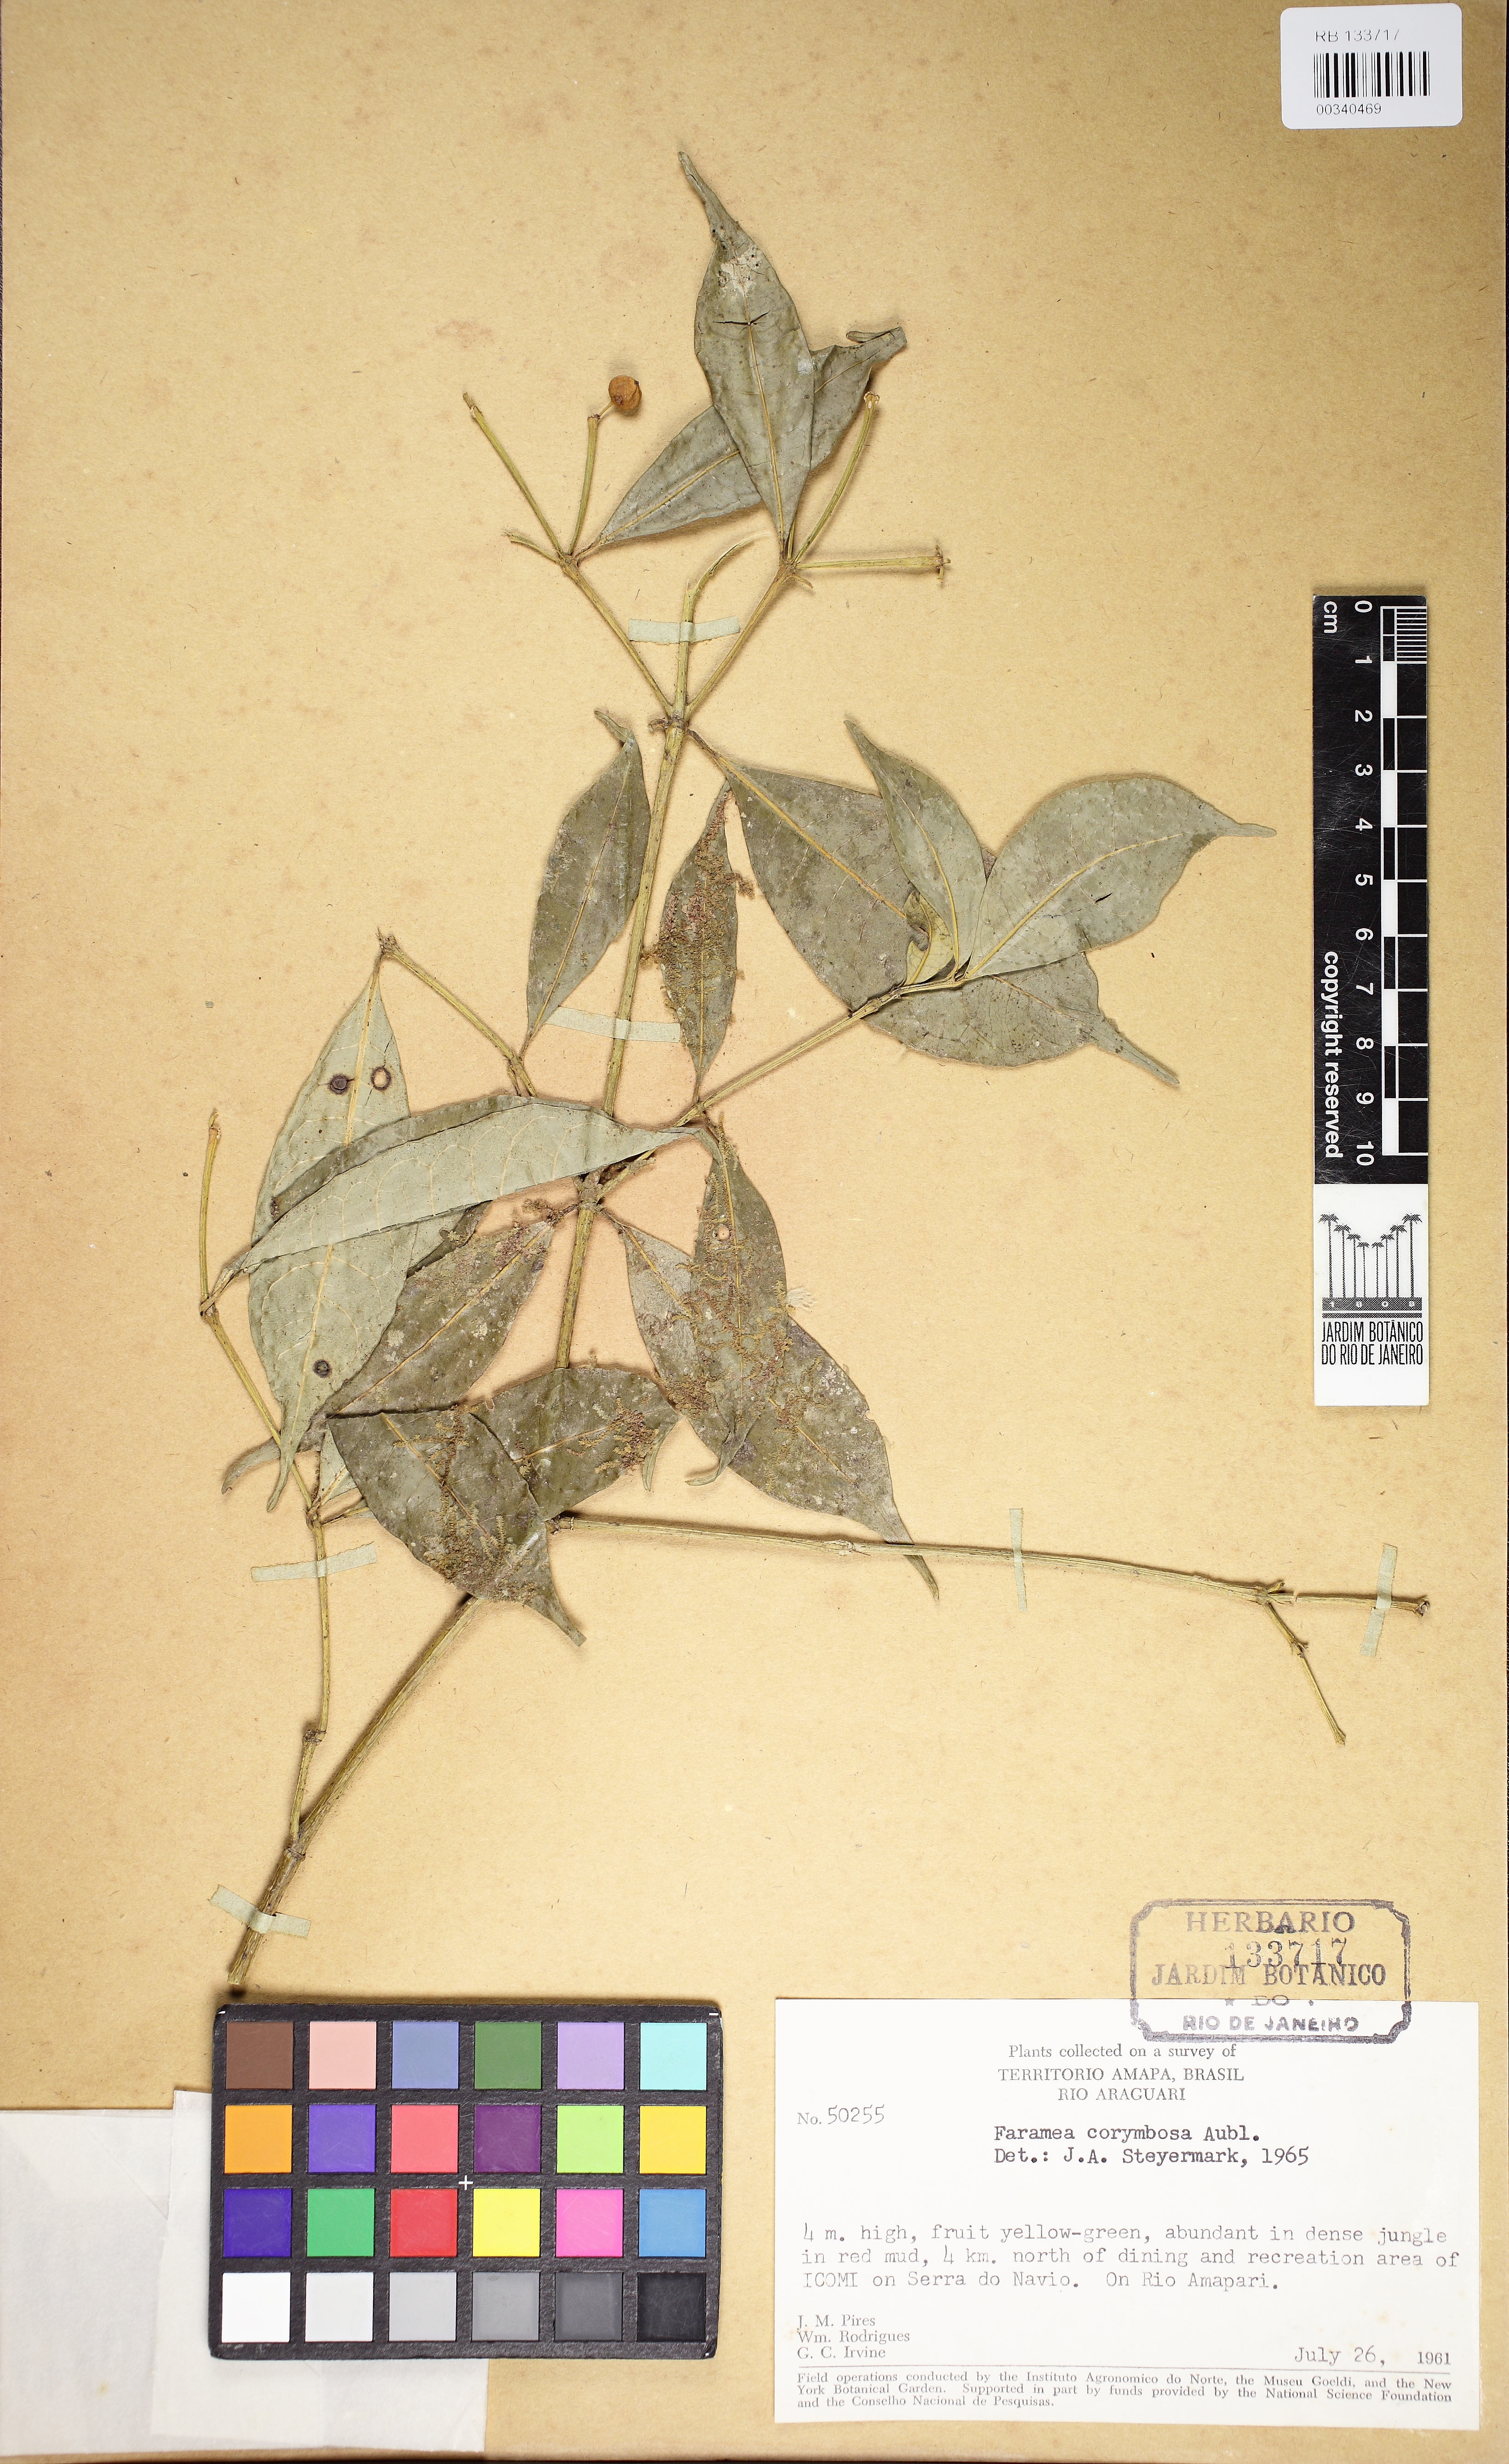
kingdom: Plantae
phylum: Tracheophyta
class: Magnoliopsida
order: Gentianales
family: Rubiaceae
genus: Faramea
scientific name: Faramea corymbosa
